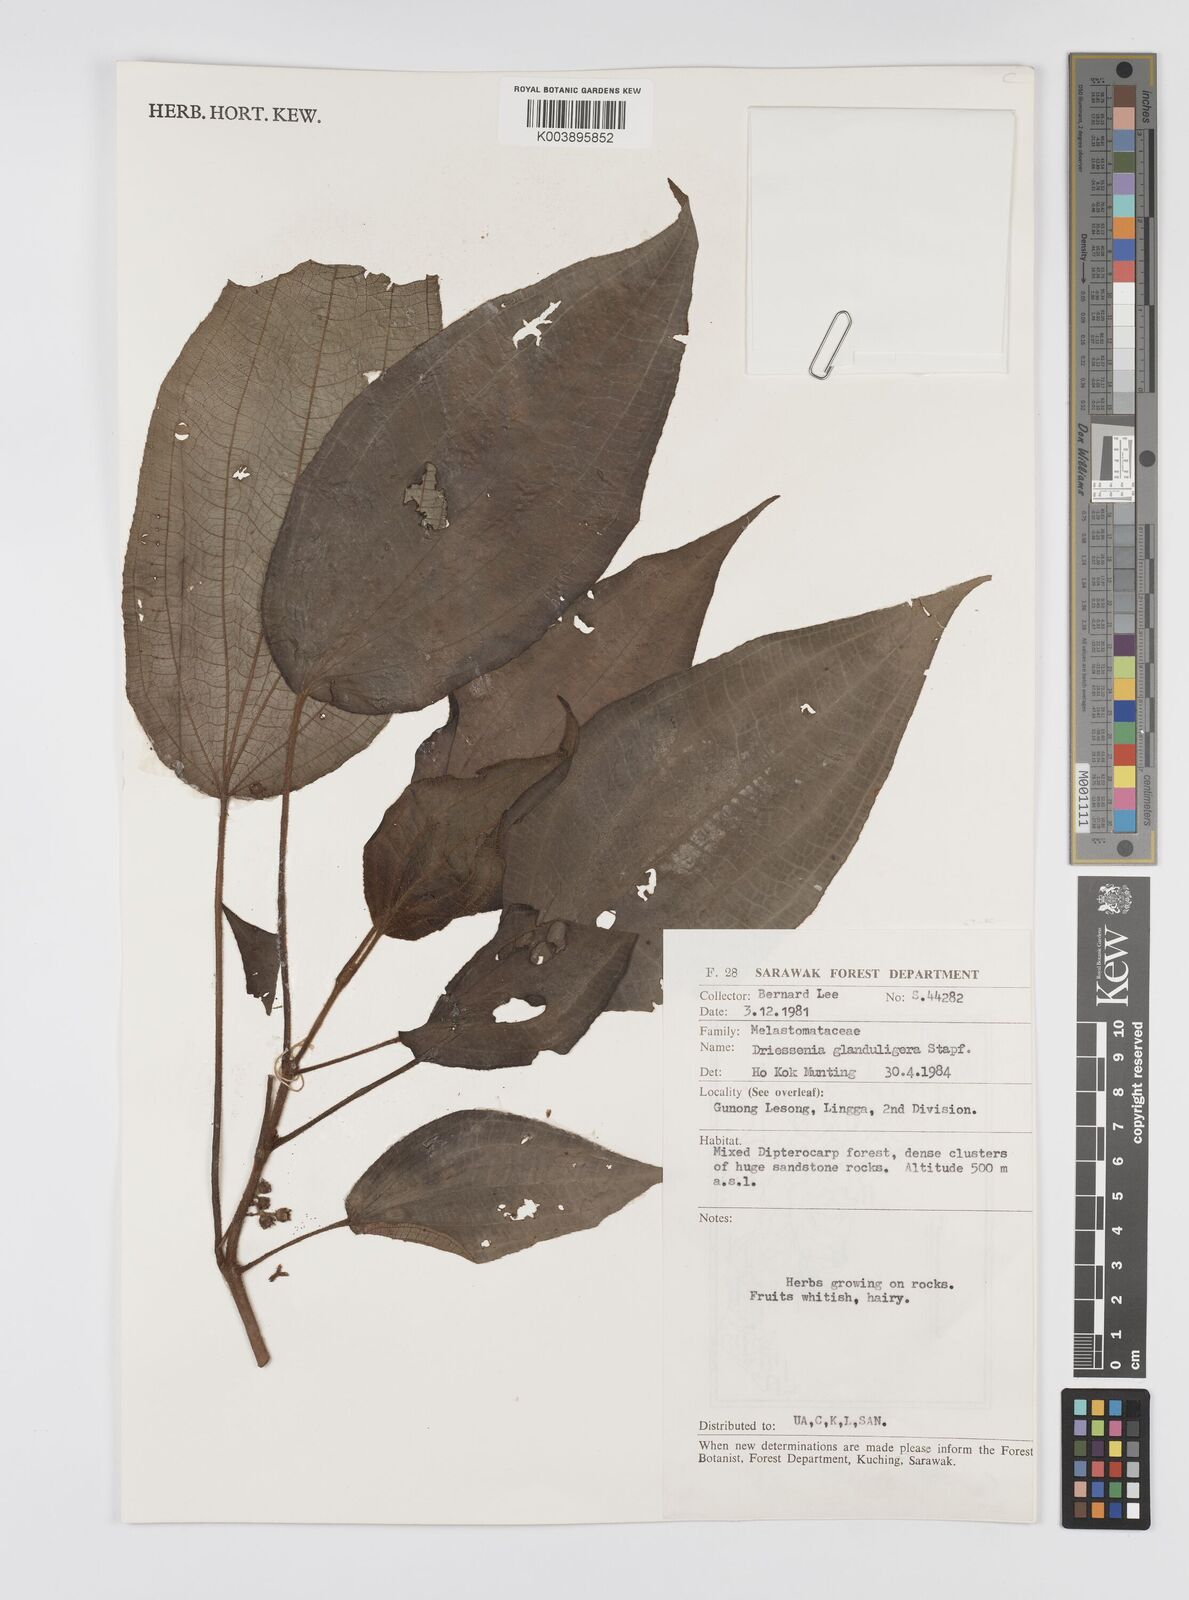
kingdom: Plantae
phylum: Tracheophyta
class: Magnoliopsida
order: Myrtales
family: Melastomataceae
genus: Driessenia
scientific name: Driessenia glanduligera
